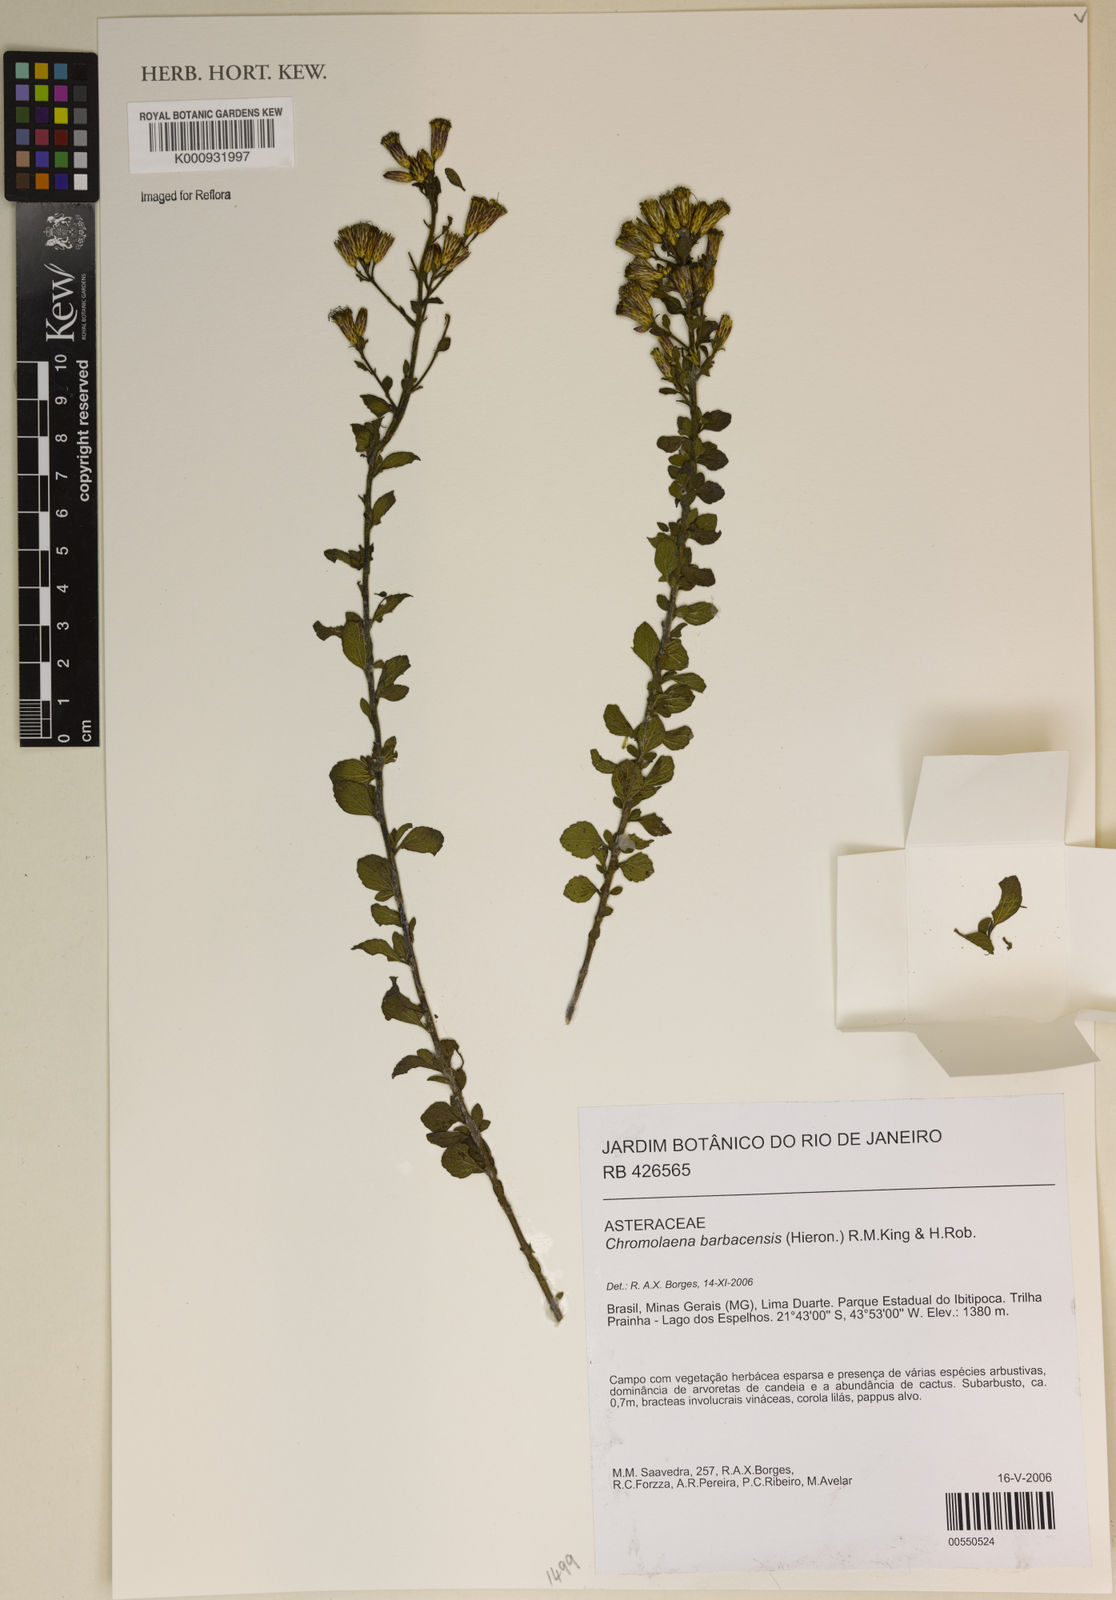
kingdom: Plantae
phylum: Tracheophyta
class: Magnoliopsida
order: Asterales
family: Asteraceae
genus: Chromolaena
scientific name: Chromolaena barbacensis
